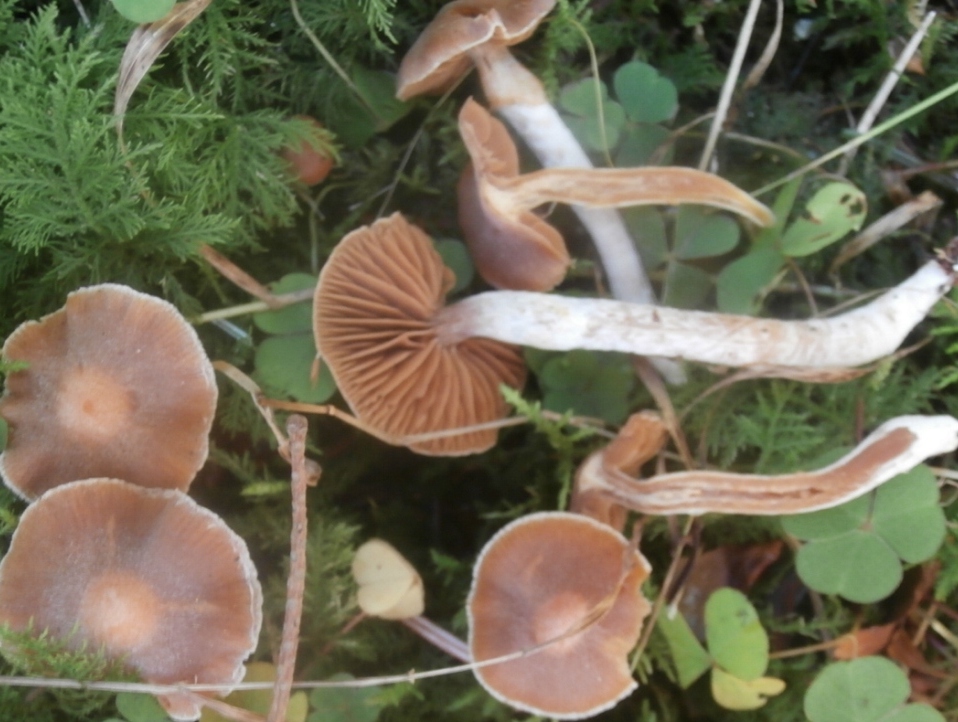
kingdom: Fungi
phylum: Basidiomycota
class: Agaricomycetes
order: Agaricales
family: Cortinariaceae
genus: Cortinarius
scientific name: Cortinarius
